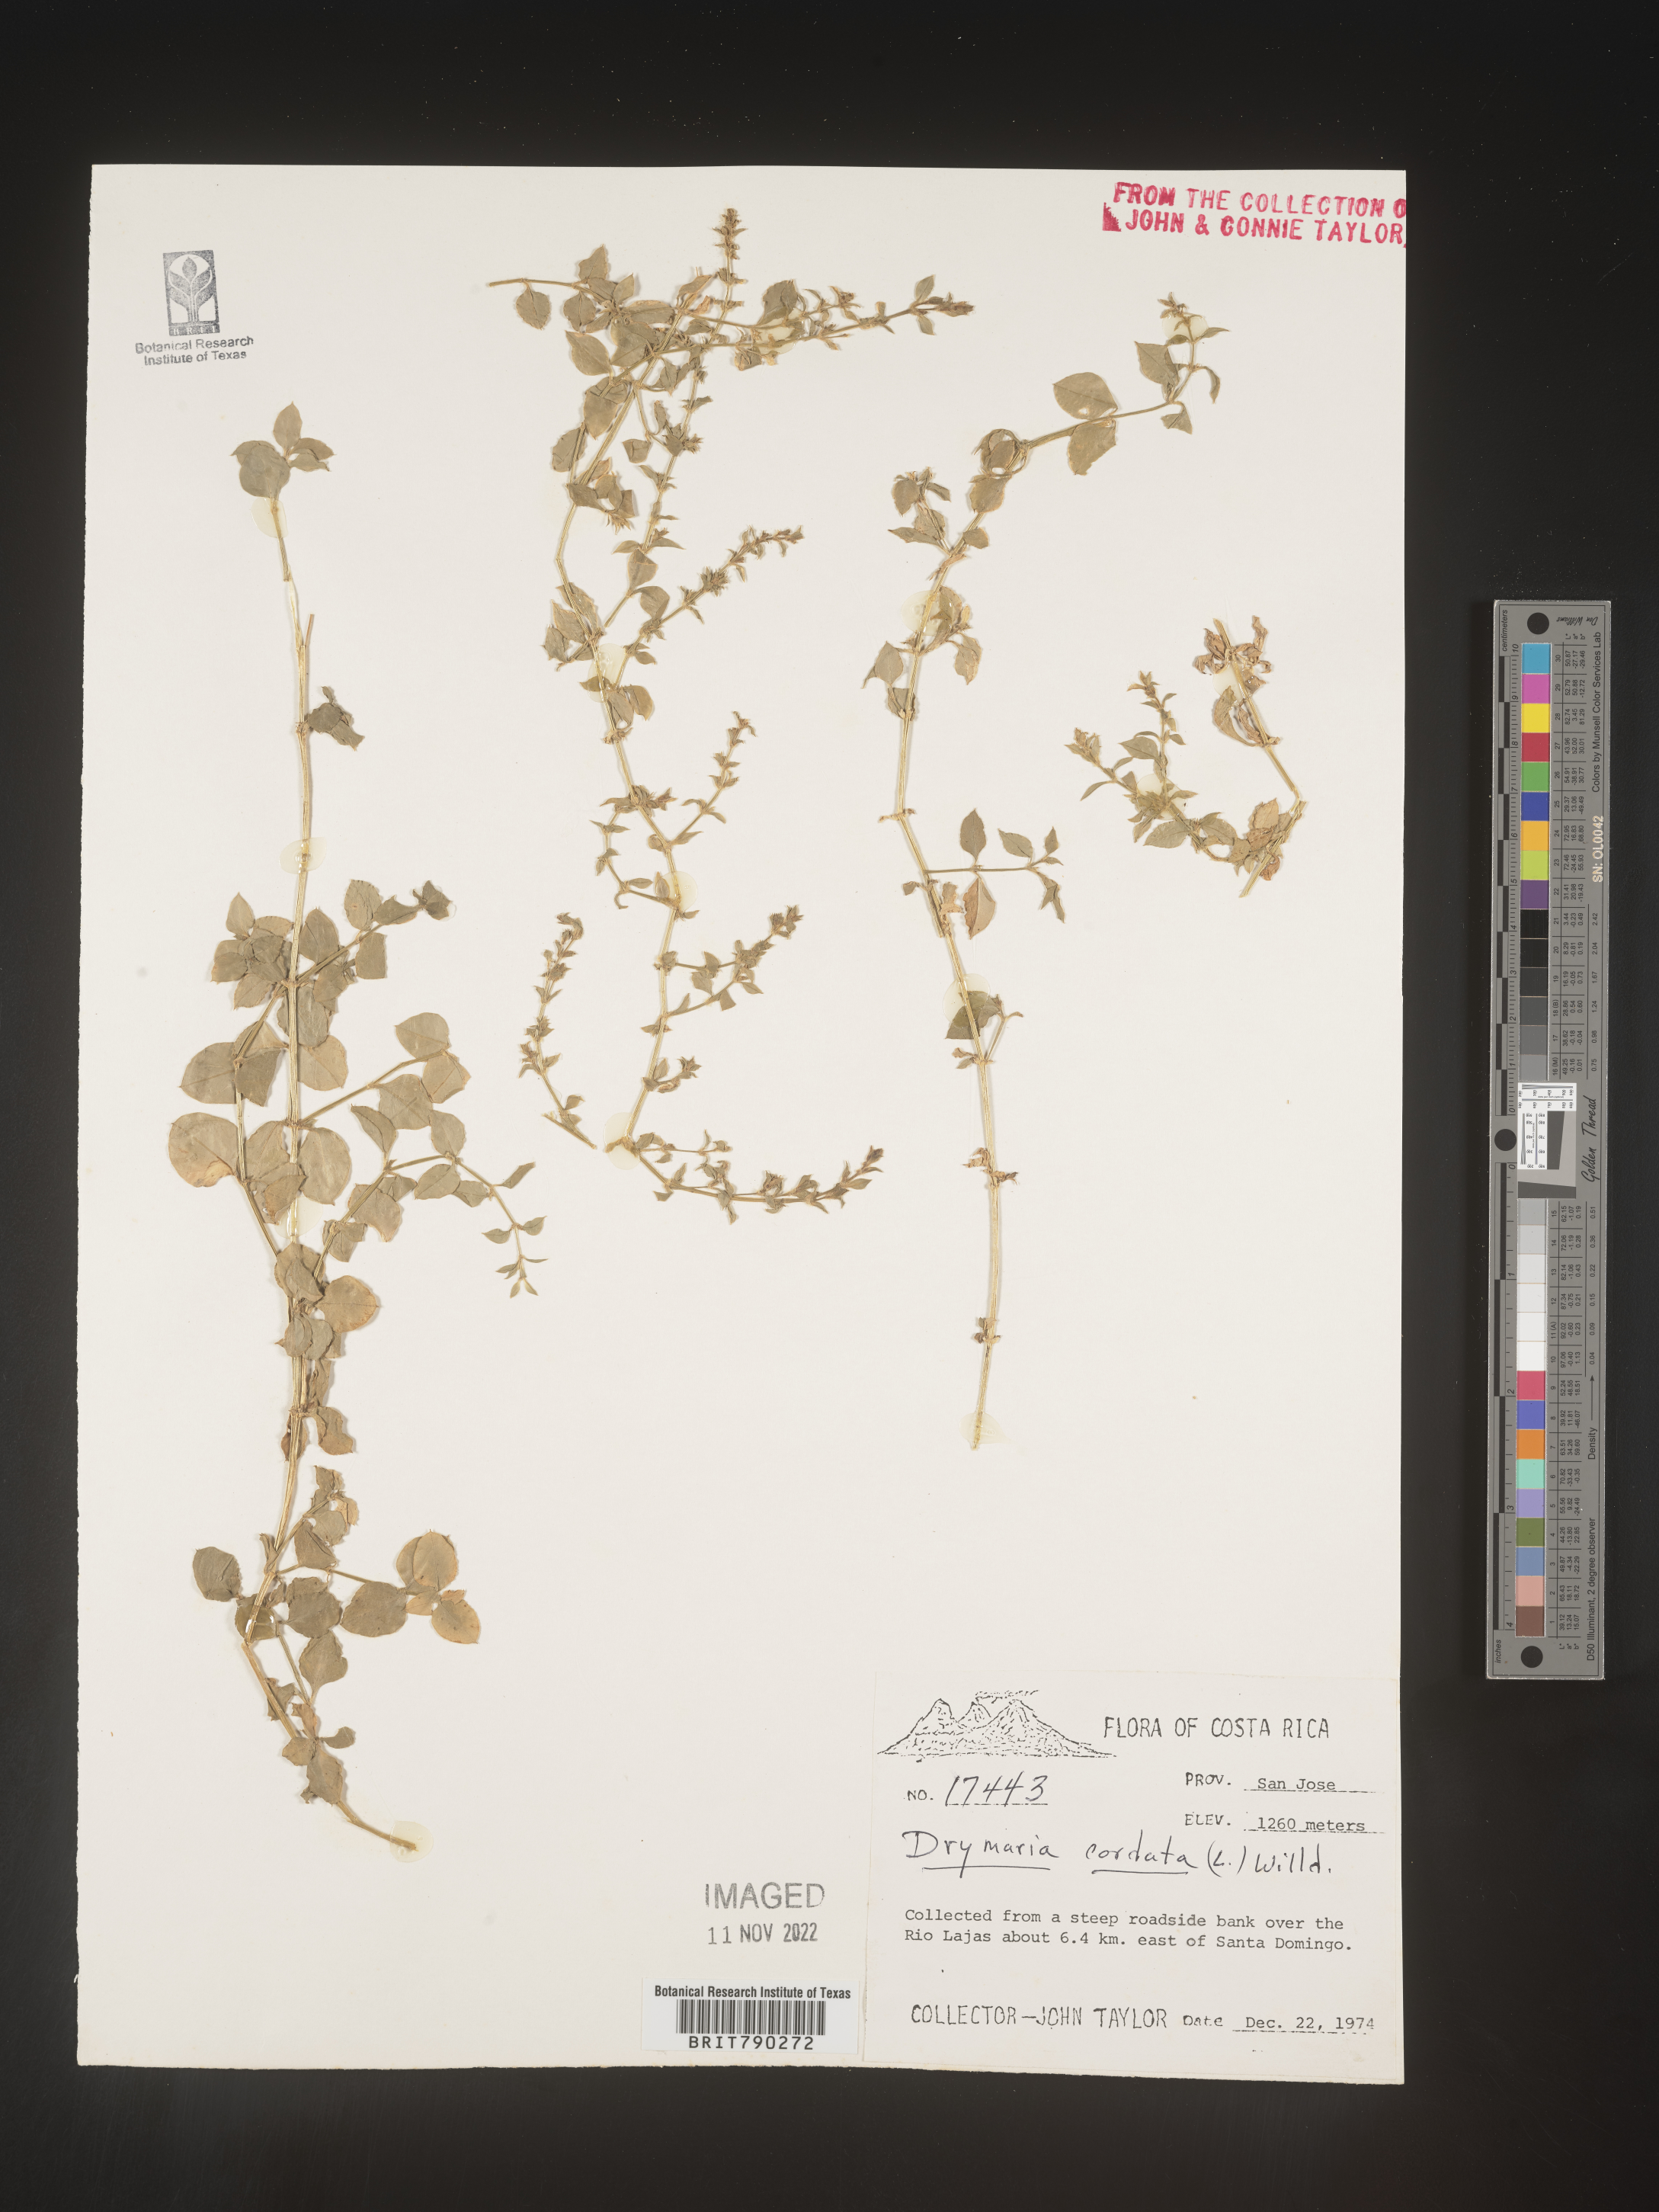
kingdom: Plantae
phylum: Tracheophyta
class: Magnoliopsida
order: Caryophyllales
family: Caryophyllaceae
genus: Drymaria
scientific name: Drymaria
